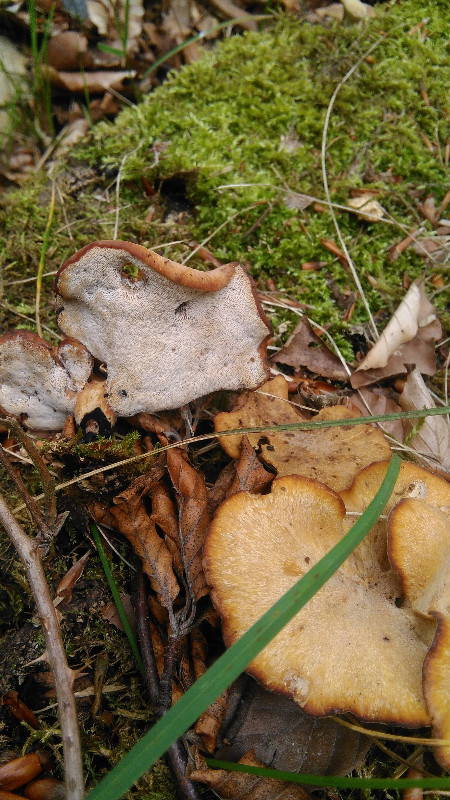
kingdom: Fungi
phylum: Basidiomycota
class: Agaricomycetes
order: Polyporales
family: Polyporaceae
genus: Cerioporus
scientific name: Cerioporus varius
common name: foranderlig stilkporesvamp
